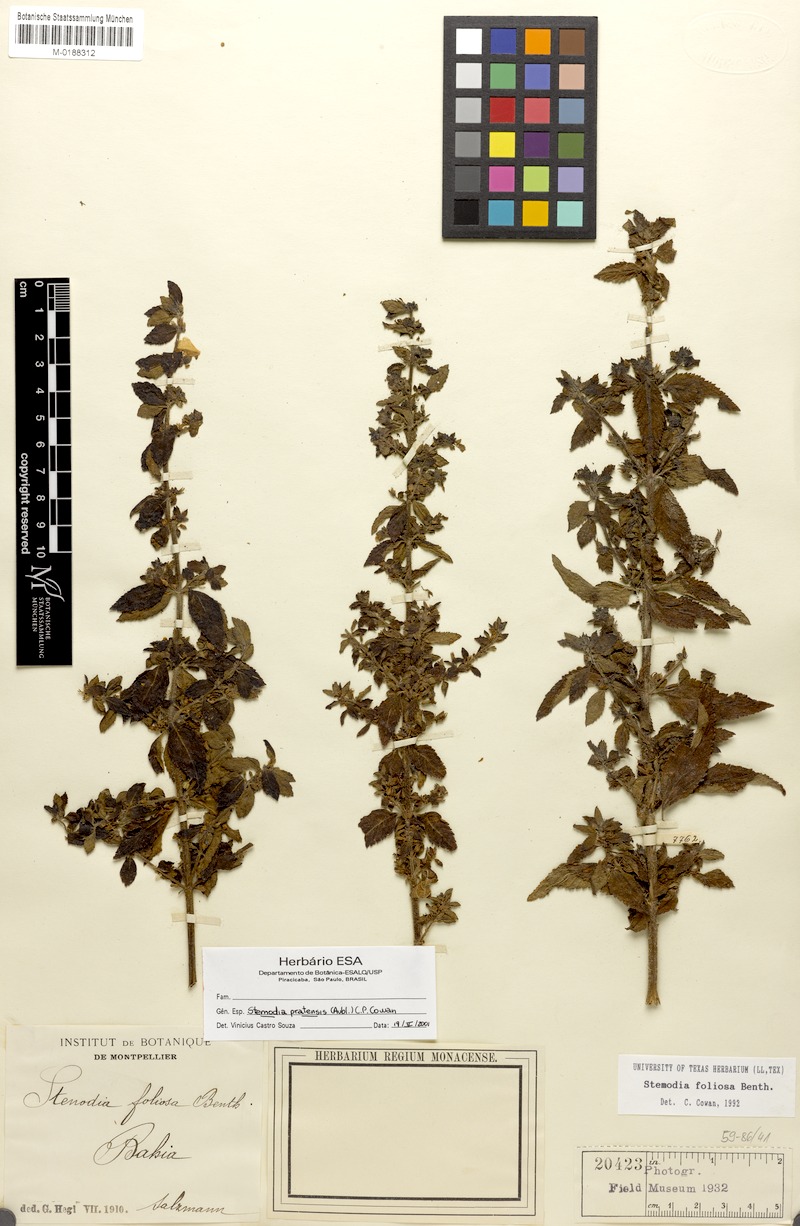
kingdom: Plantae
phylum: Tracheophyta
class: Magnoliopsida
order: Lamiales
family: Plantaginaceae
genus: Matourea
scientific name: Matourea pratensis
